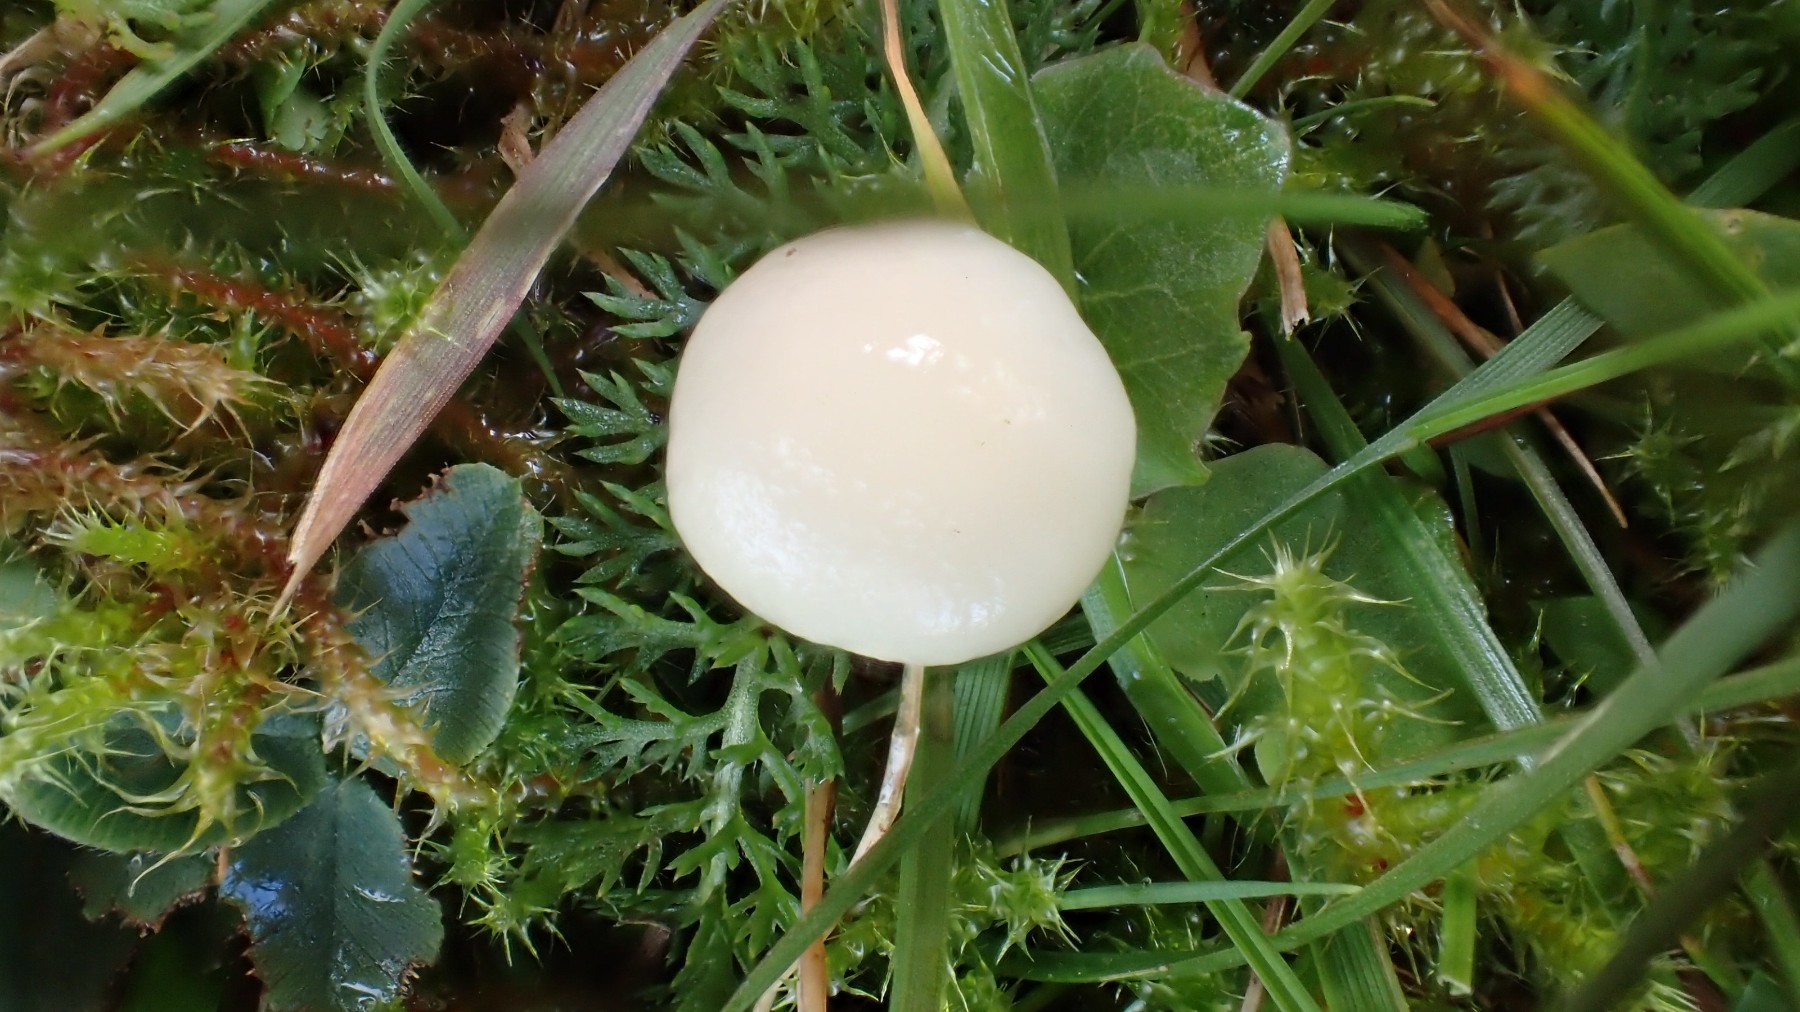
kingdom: Fungi
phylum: Basidiomycota
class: Agaricomycetes
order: Agaricales
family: Hygrophoraceae
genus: Cuphophyllus
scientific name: Cuphophyllus virgineus
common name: snehvid vokshat
